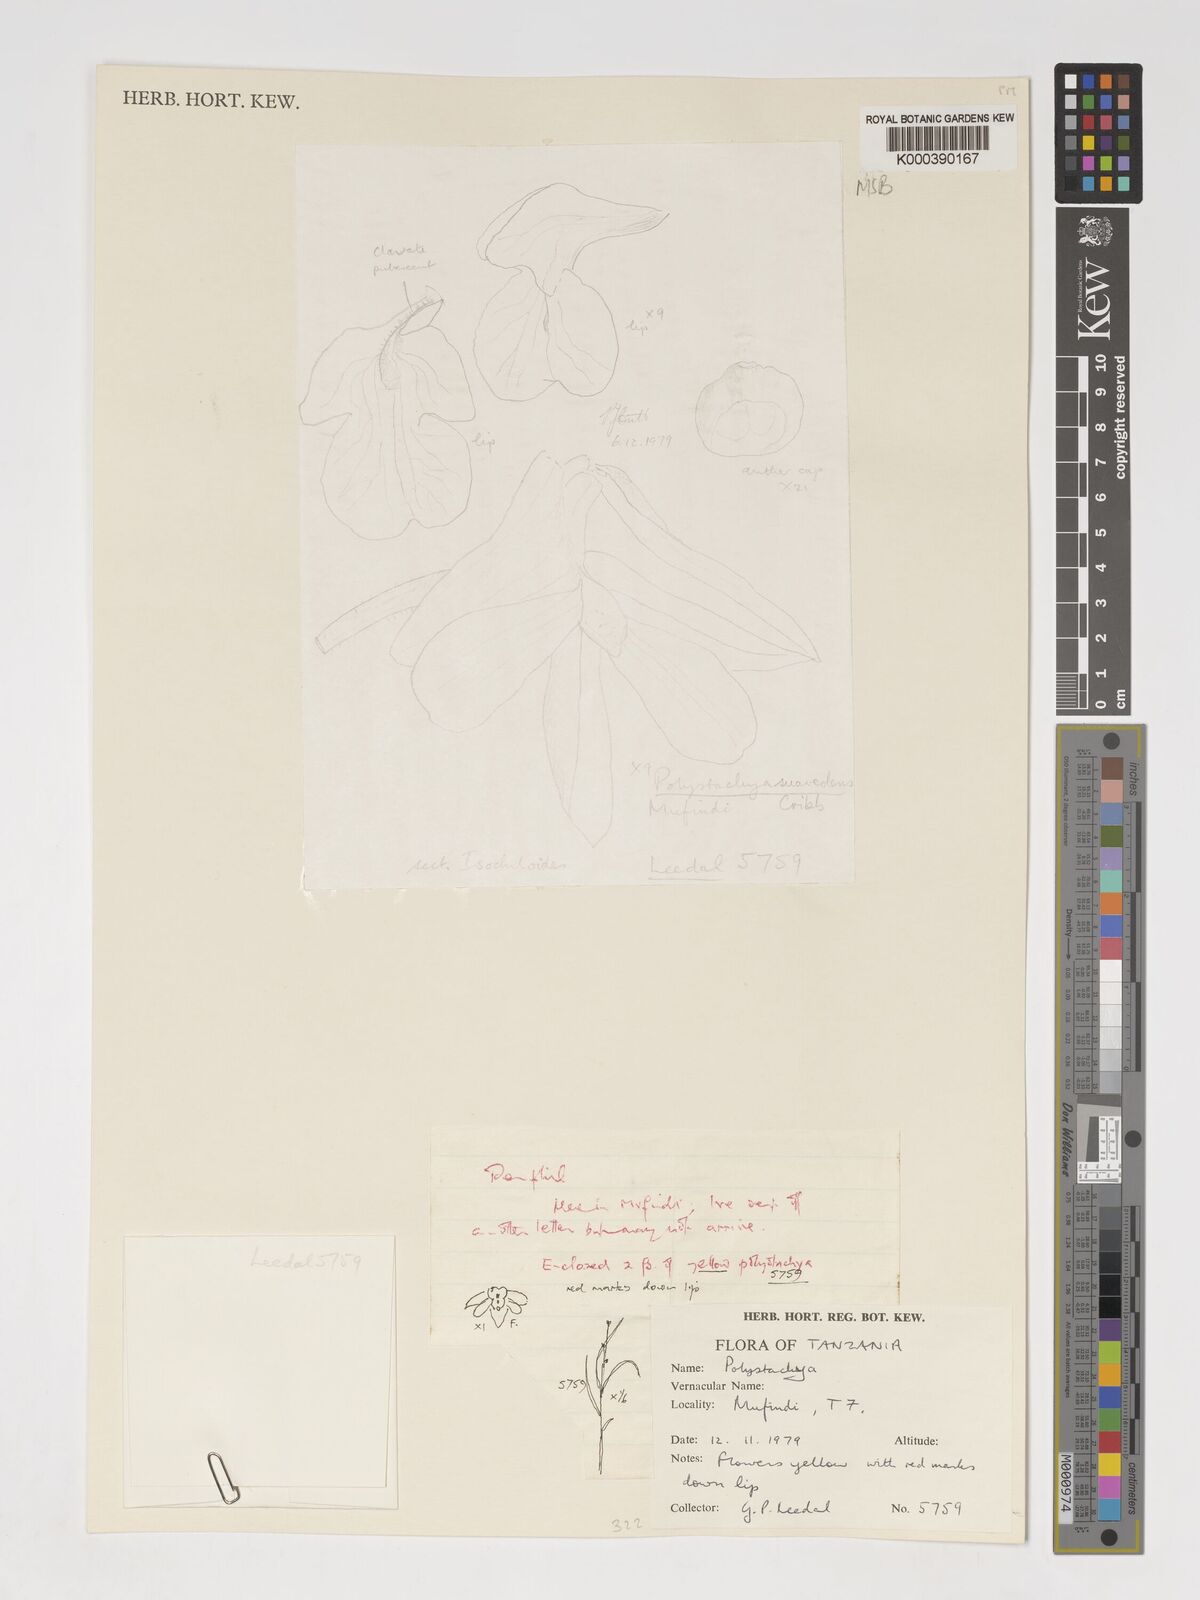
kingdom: Plantae
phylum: Tracheophyta
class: Liliopsida
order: Asparagales
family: Orchidaceae
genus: Polystachya
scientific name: Polystachya suaveolens
